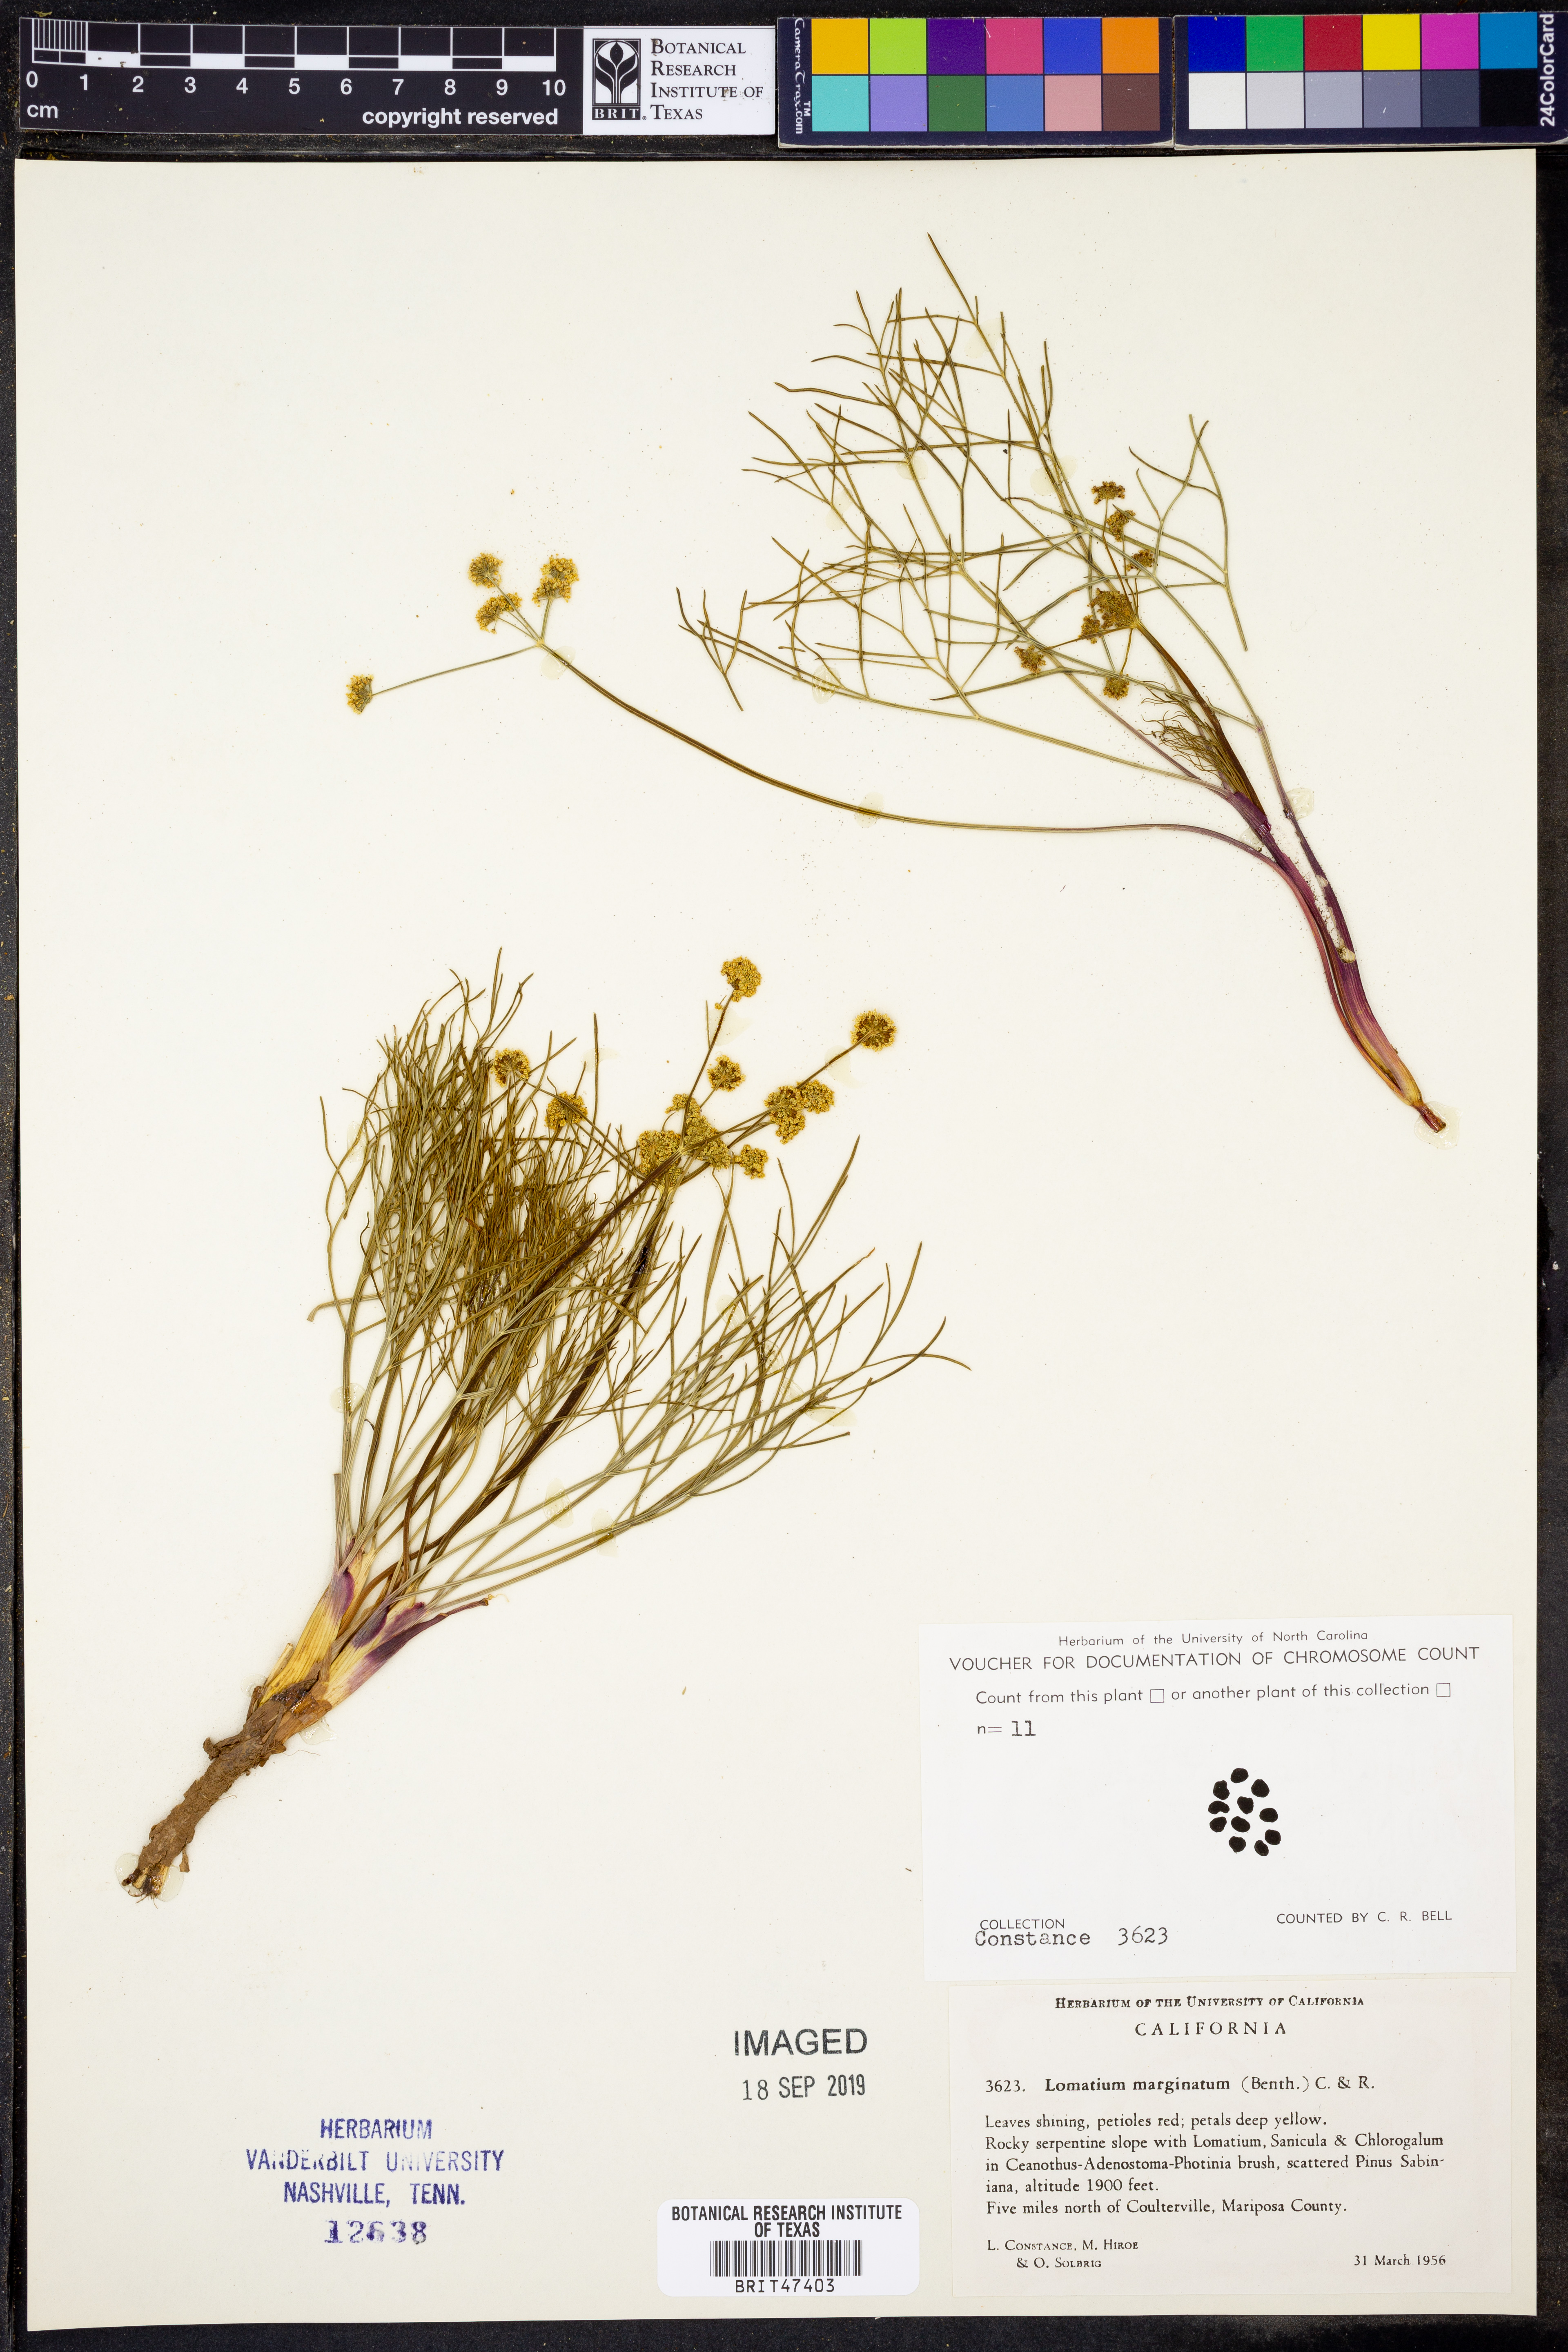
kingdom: Plantae
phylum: Tracheophyta
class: Magnoliopsida
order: Apiales
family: Apiaceae
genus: Lomatium
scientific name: Lomatium marginatum
